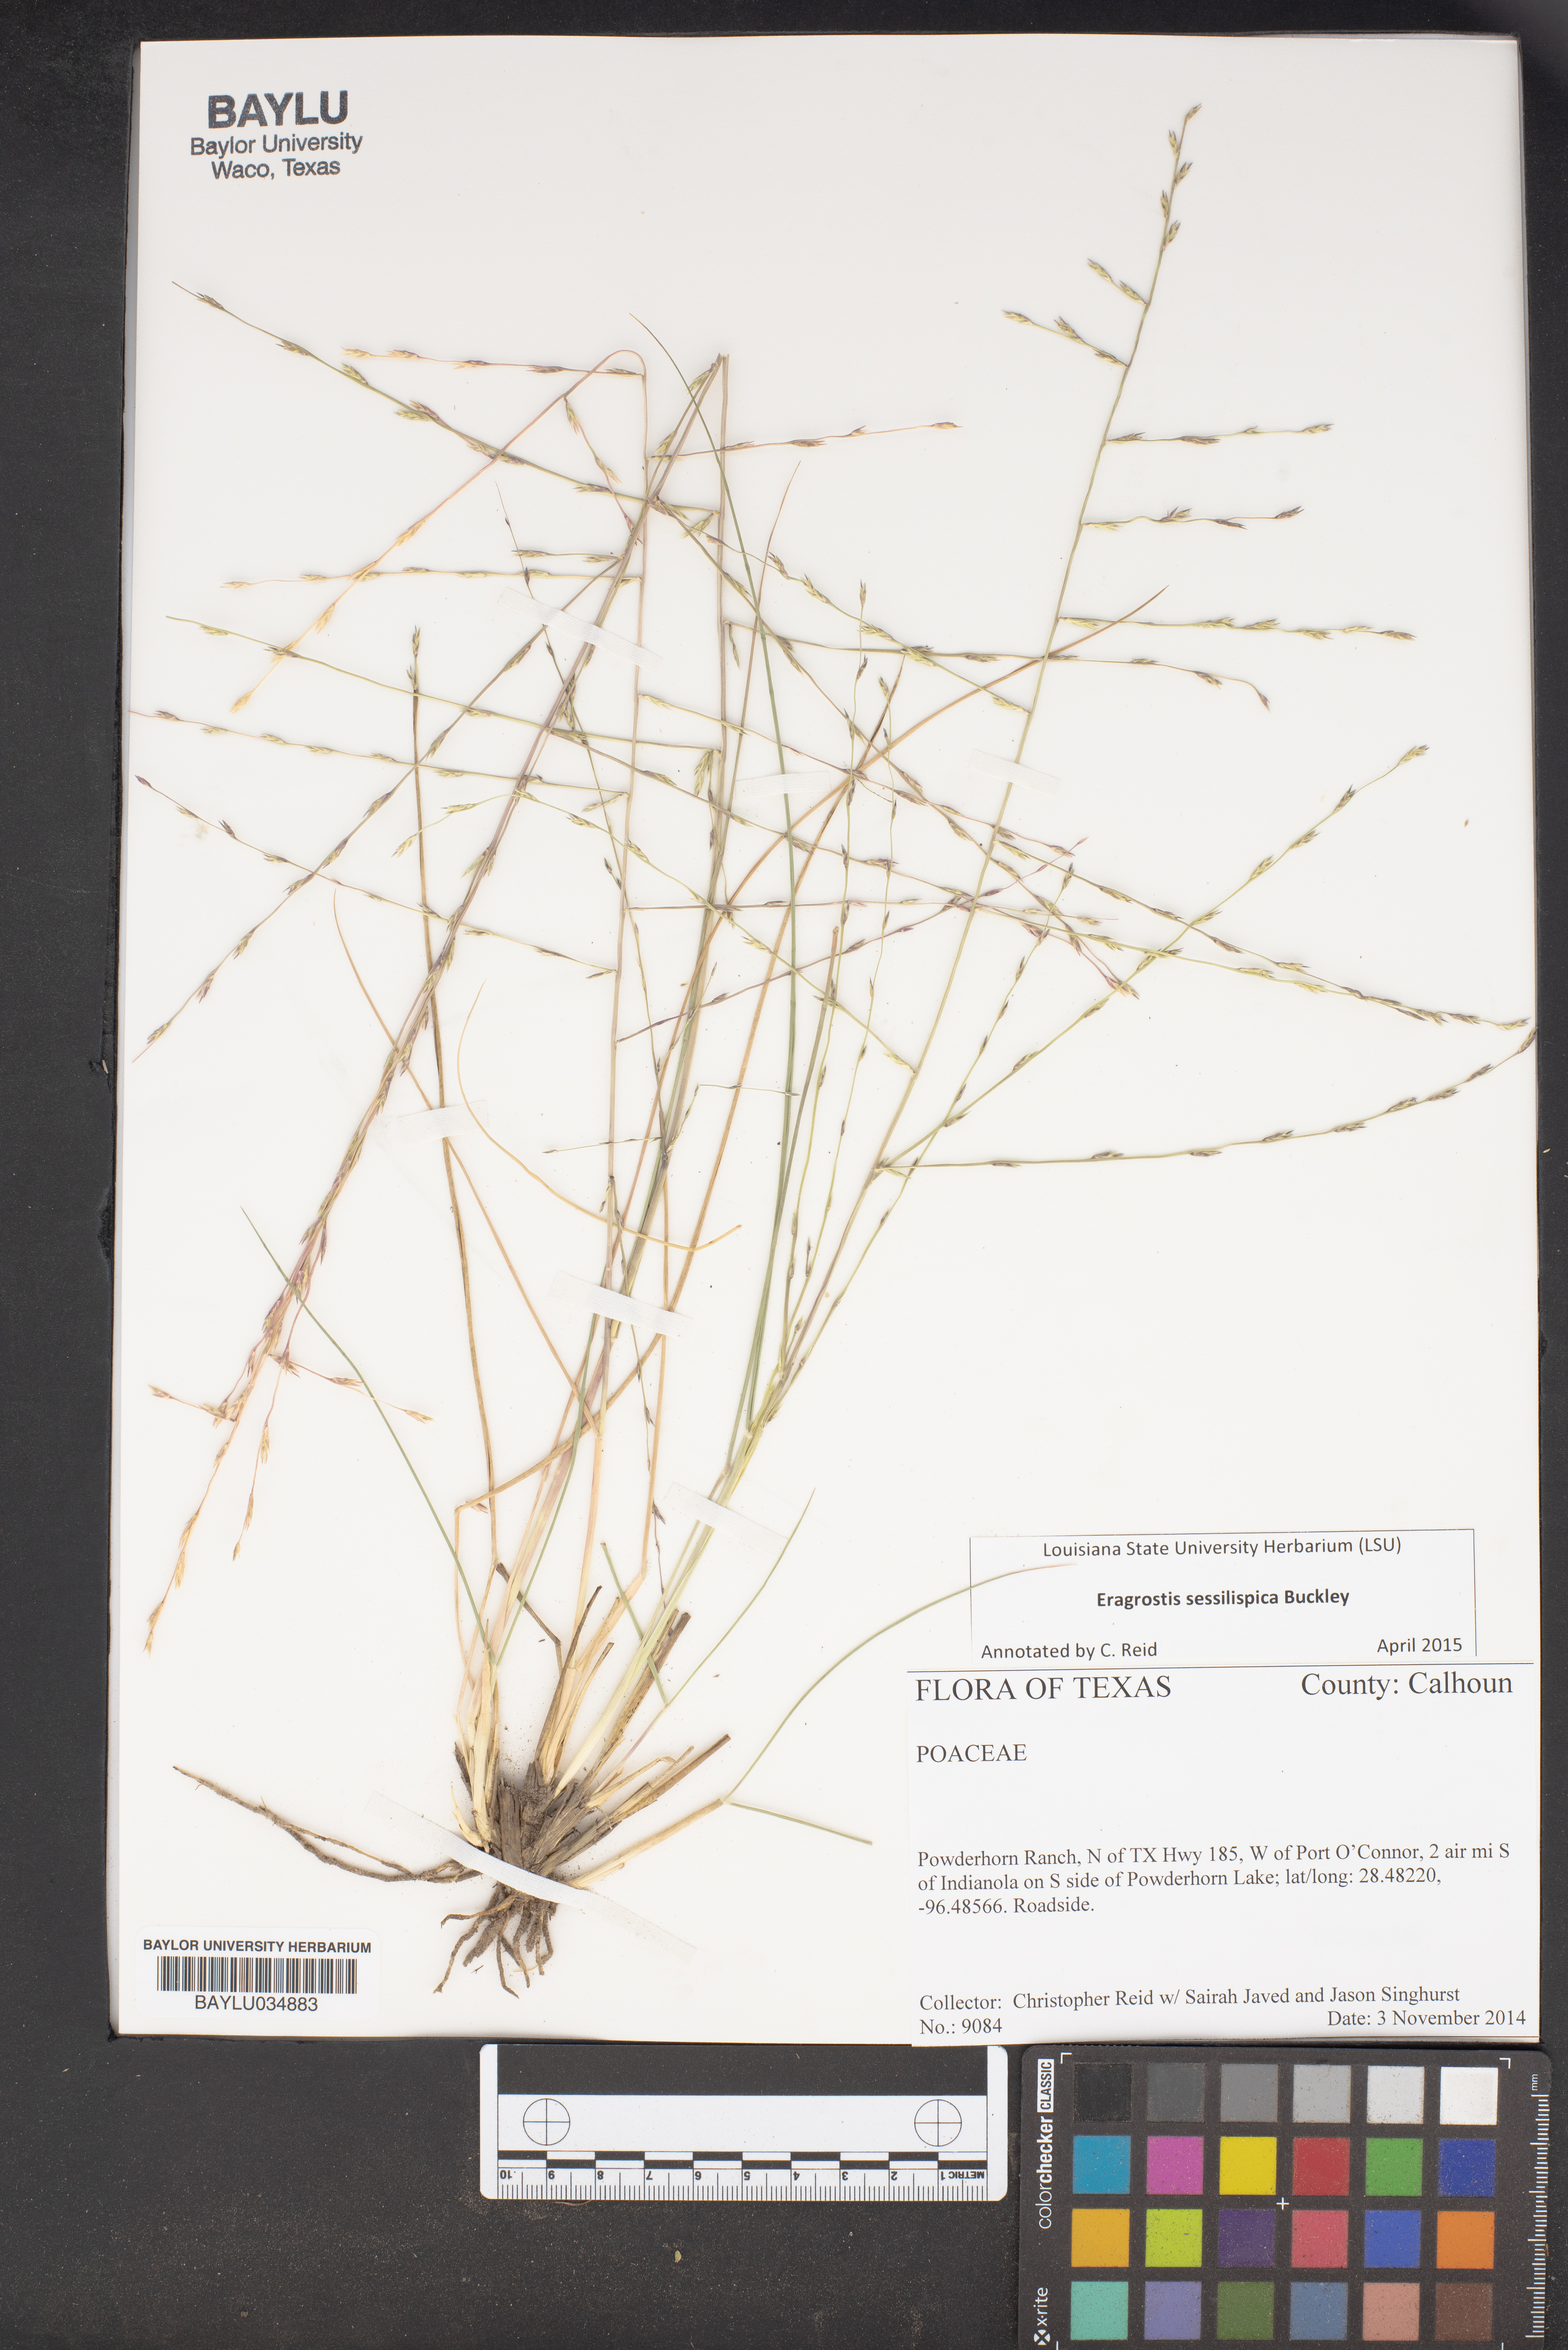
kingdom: Plantae
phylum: Tracheophyta
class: Liliopsida
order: Poales
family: Poaceae
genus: Eragrostis
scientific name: Eragrostis sessilispica
